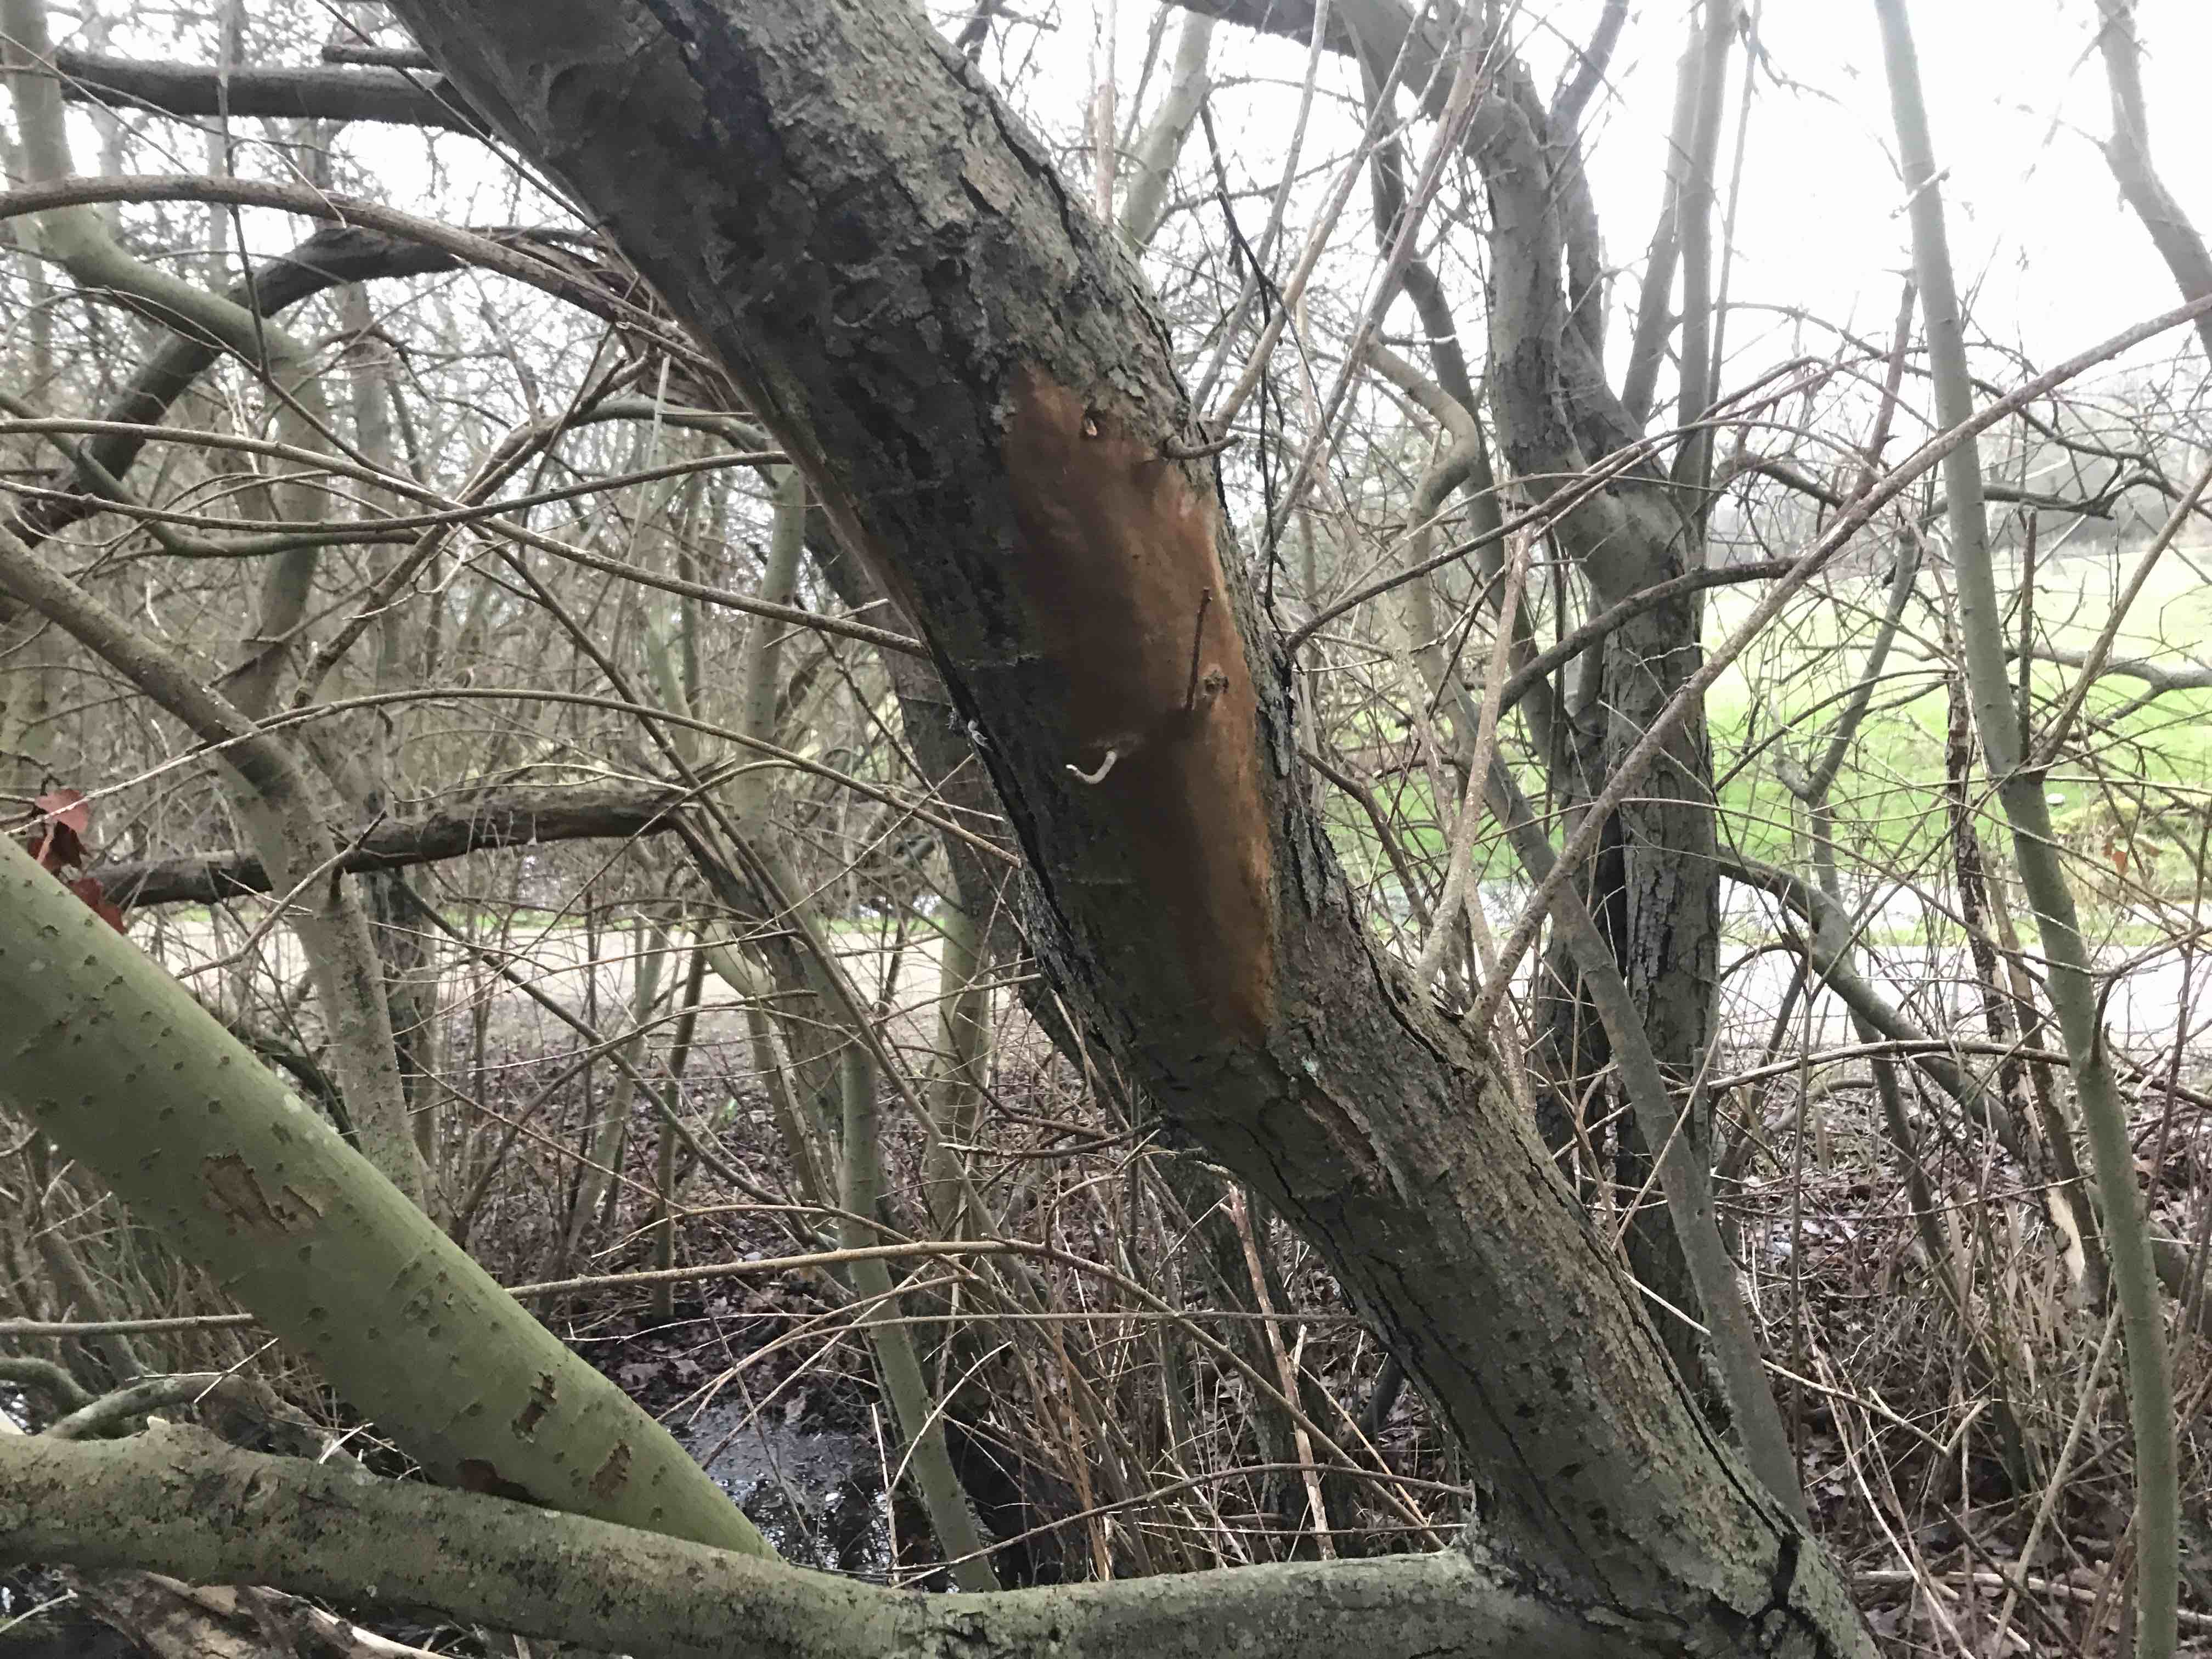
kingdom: Fungi
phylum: Basidiomycota
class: Agaricomycetes
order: Hymenochaetales
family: Hymenochaetaceae
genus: Fomitiporia
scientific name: Fomitiporia punctata
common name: pude-ildporesvamp
